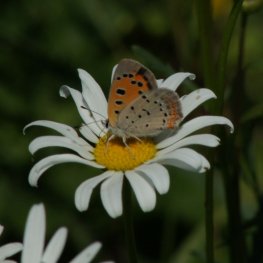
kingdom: Animalia
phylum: Arthropoda
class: Insecta
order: Lepidoptera
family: Lycaenidae
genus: Lycaena
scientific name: Lycaena phlaeas
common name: American Copper
